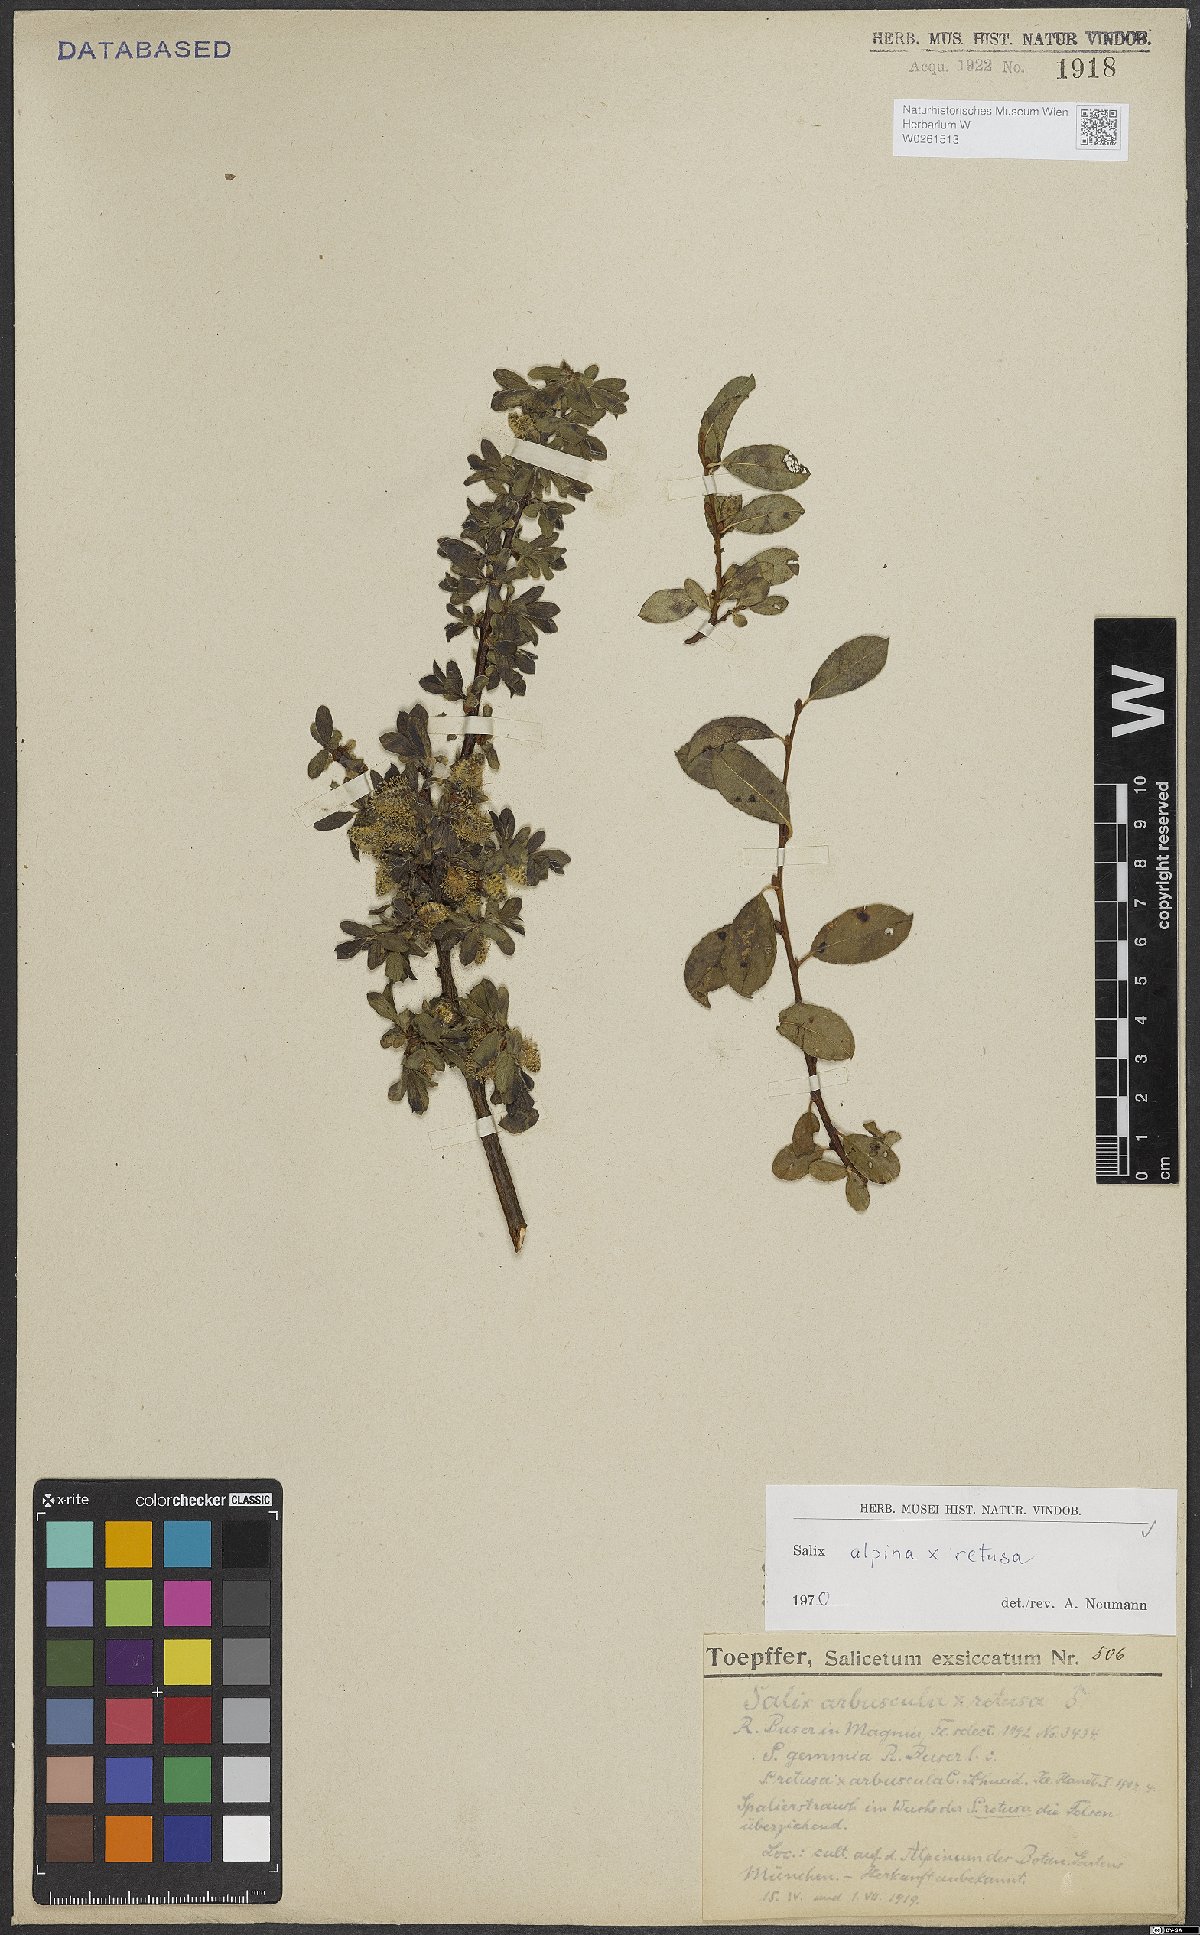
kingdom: Plantae
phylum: Tracheophyta
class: Magnoliopsida
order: Malpighiales
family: Salicaceae
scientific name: Salicaceae
